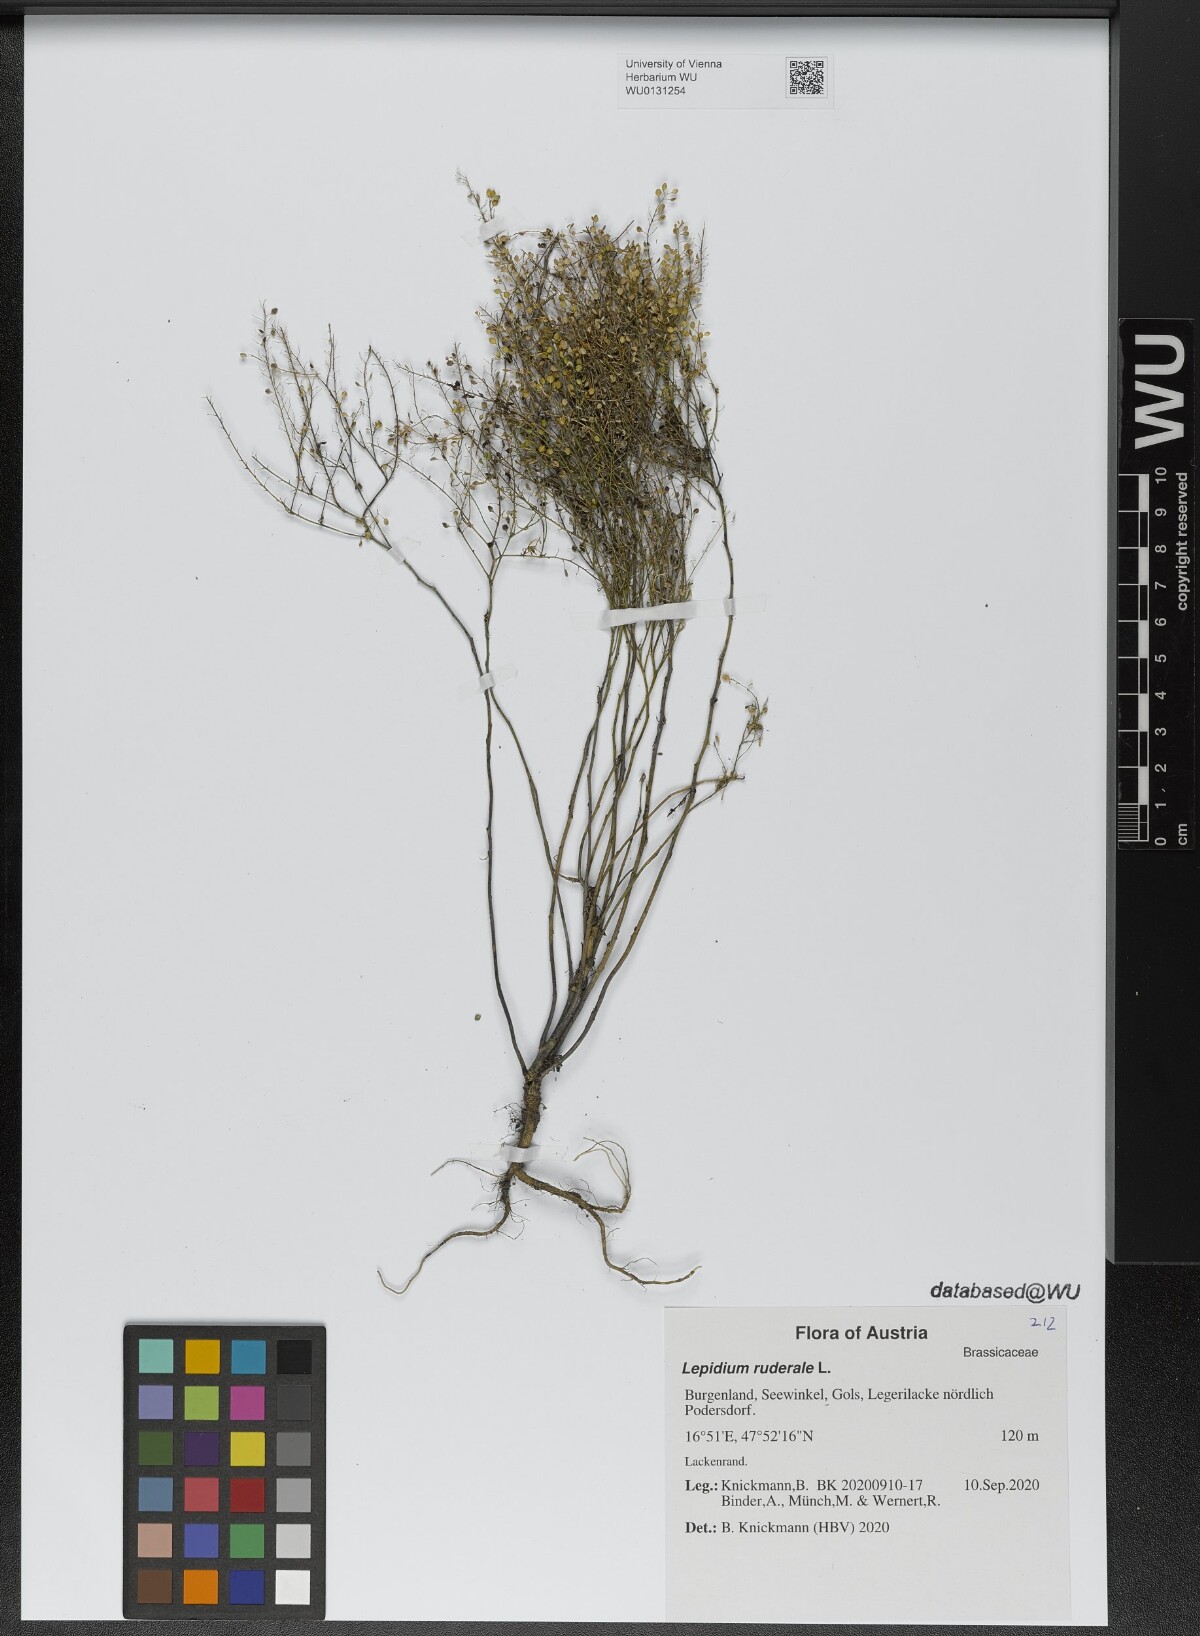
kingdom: Plantae
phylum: Tracheophyta
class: Magnoliopsida
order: Brassicales
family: Brassicaceae
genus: Lepidium
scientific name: Lepidium ruderale
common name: Narrow-leaved pepperwort
